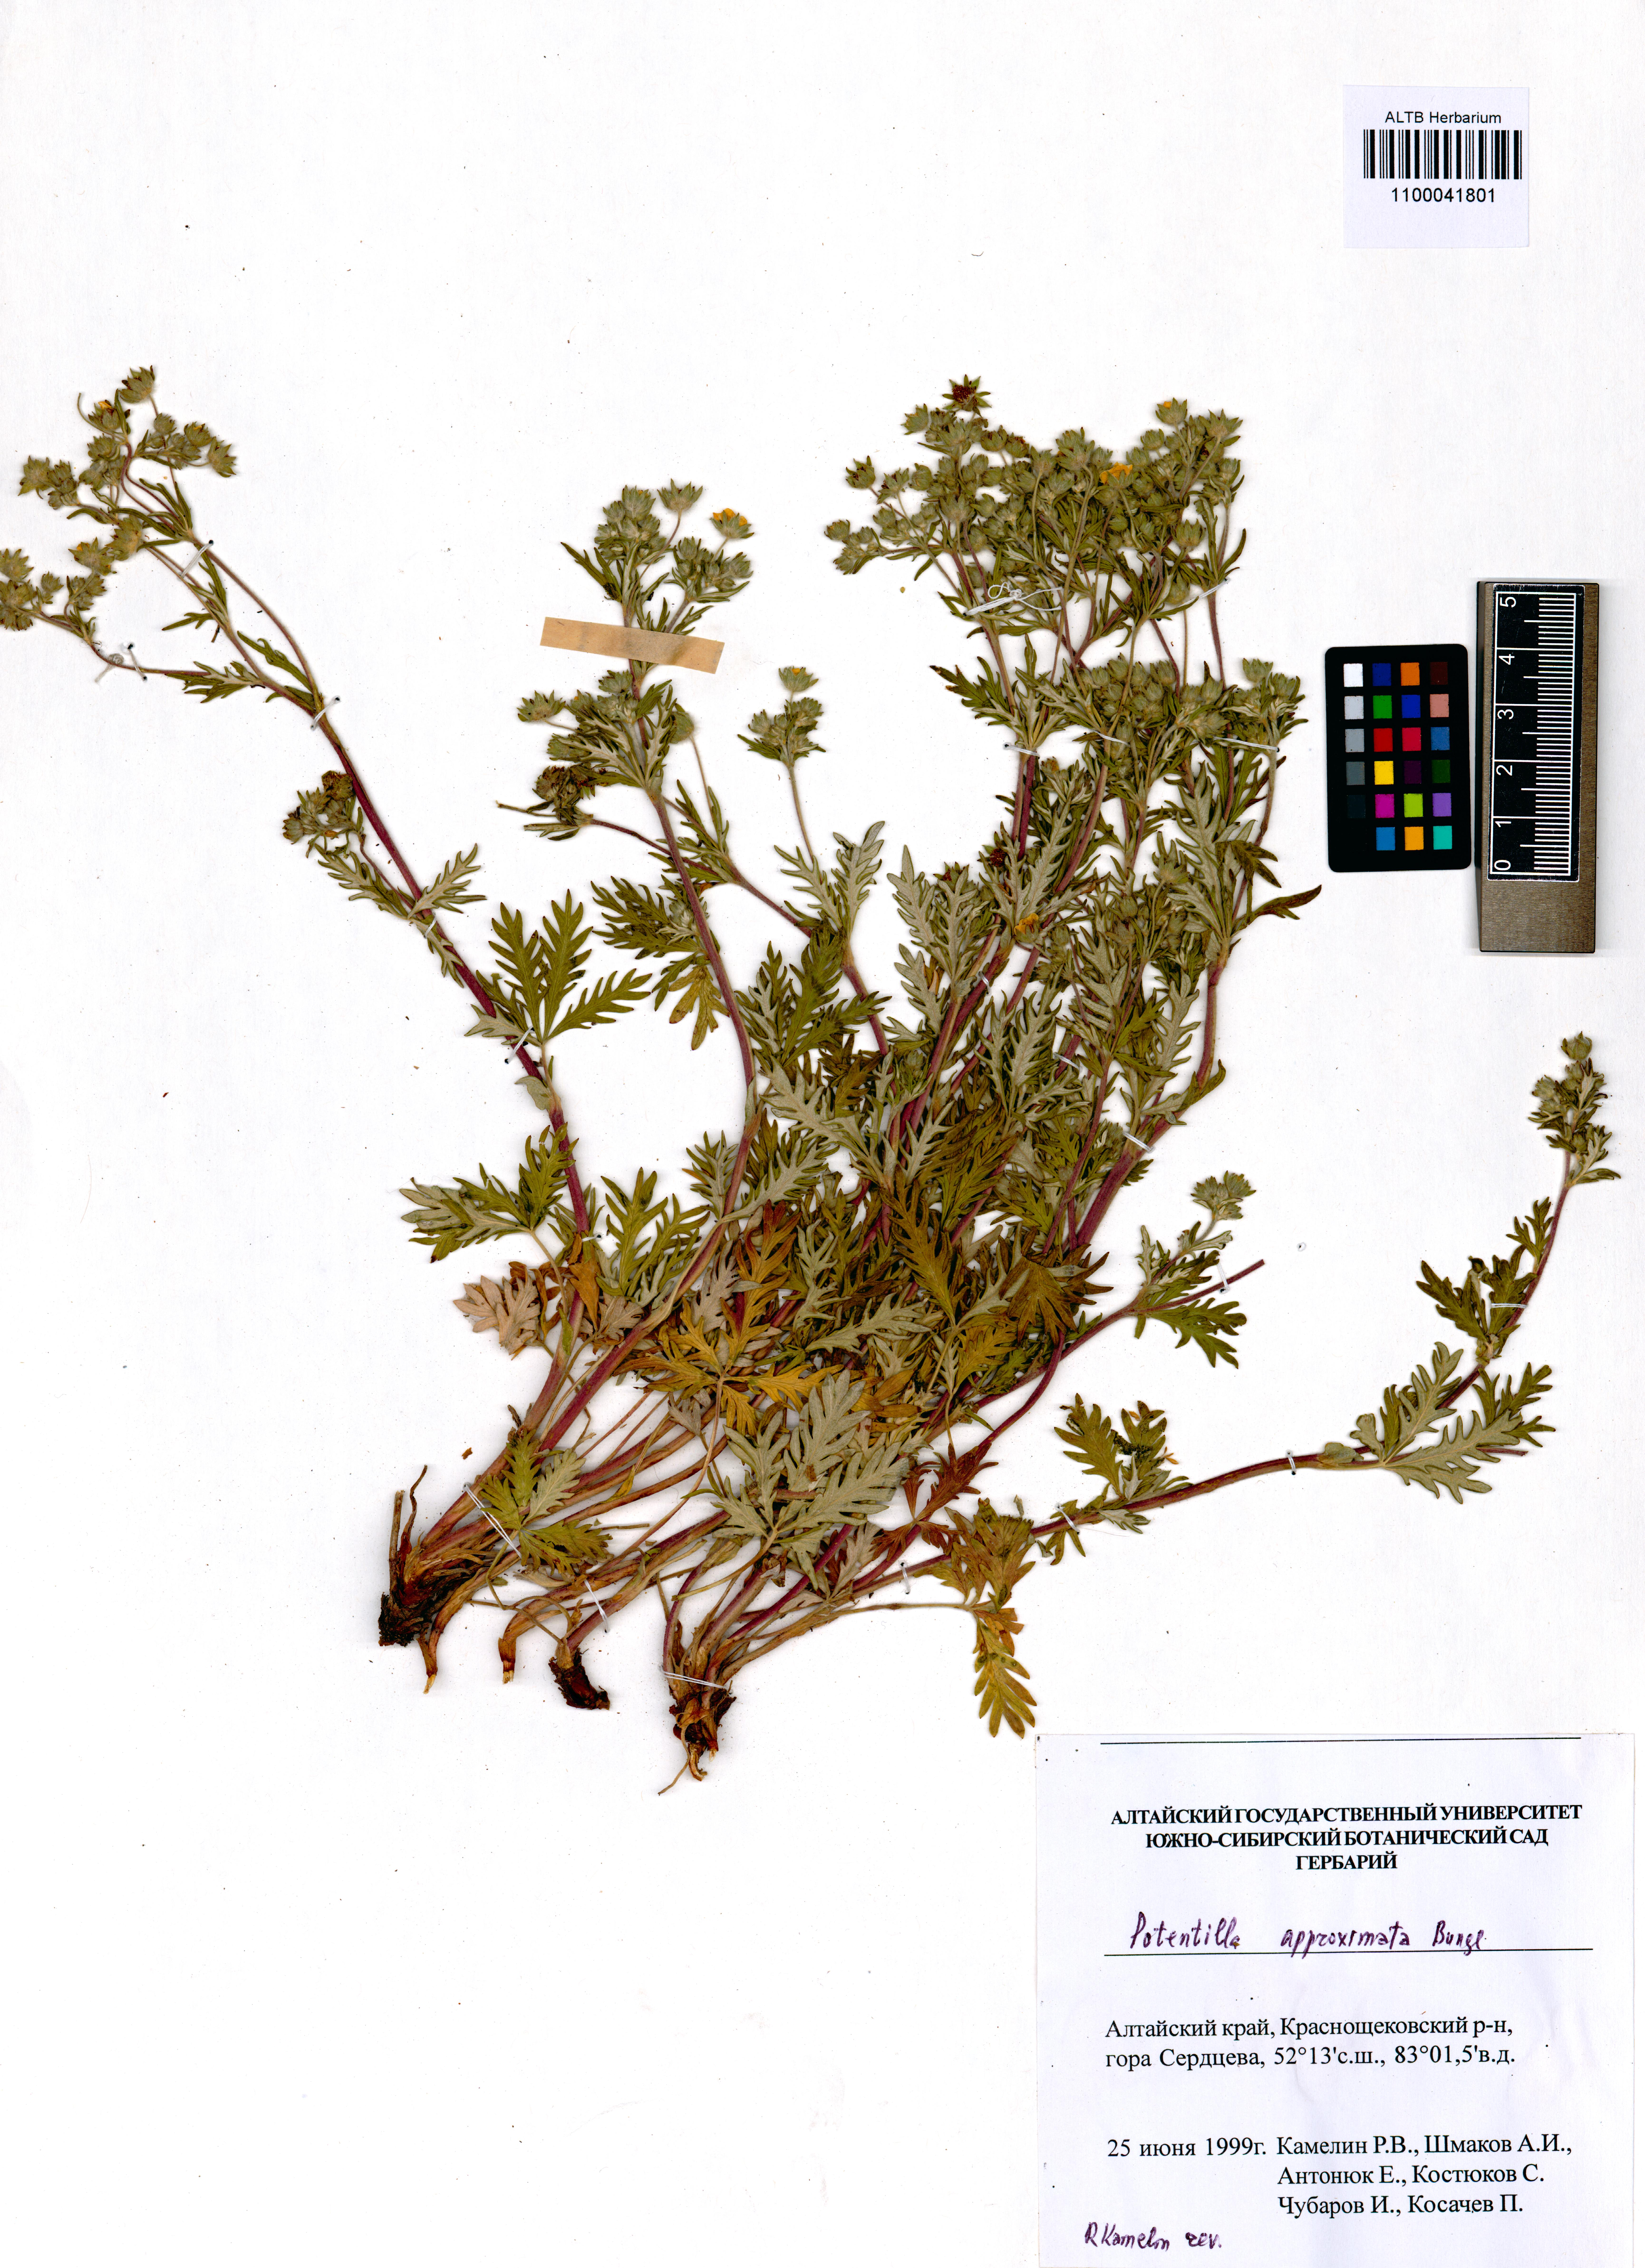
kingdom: Plantae
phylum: Tracheophyta
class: Magnoliopsida
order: Rosales
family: Rosaceae
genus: Potentilla
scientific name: Potentilla conferta
